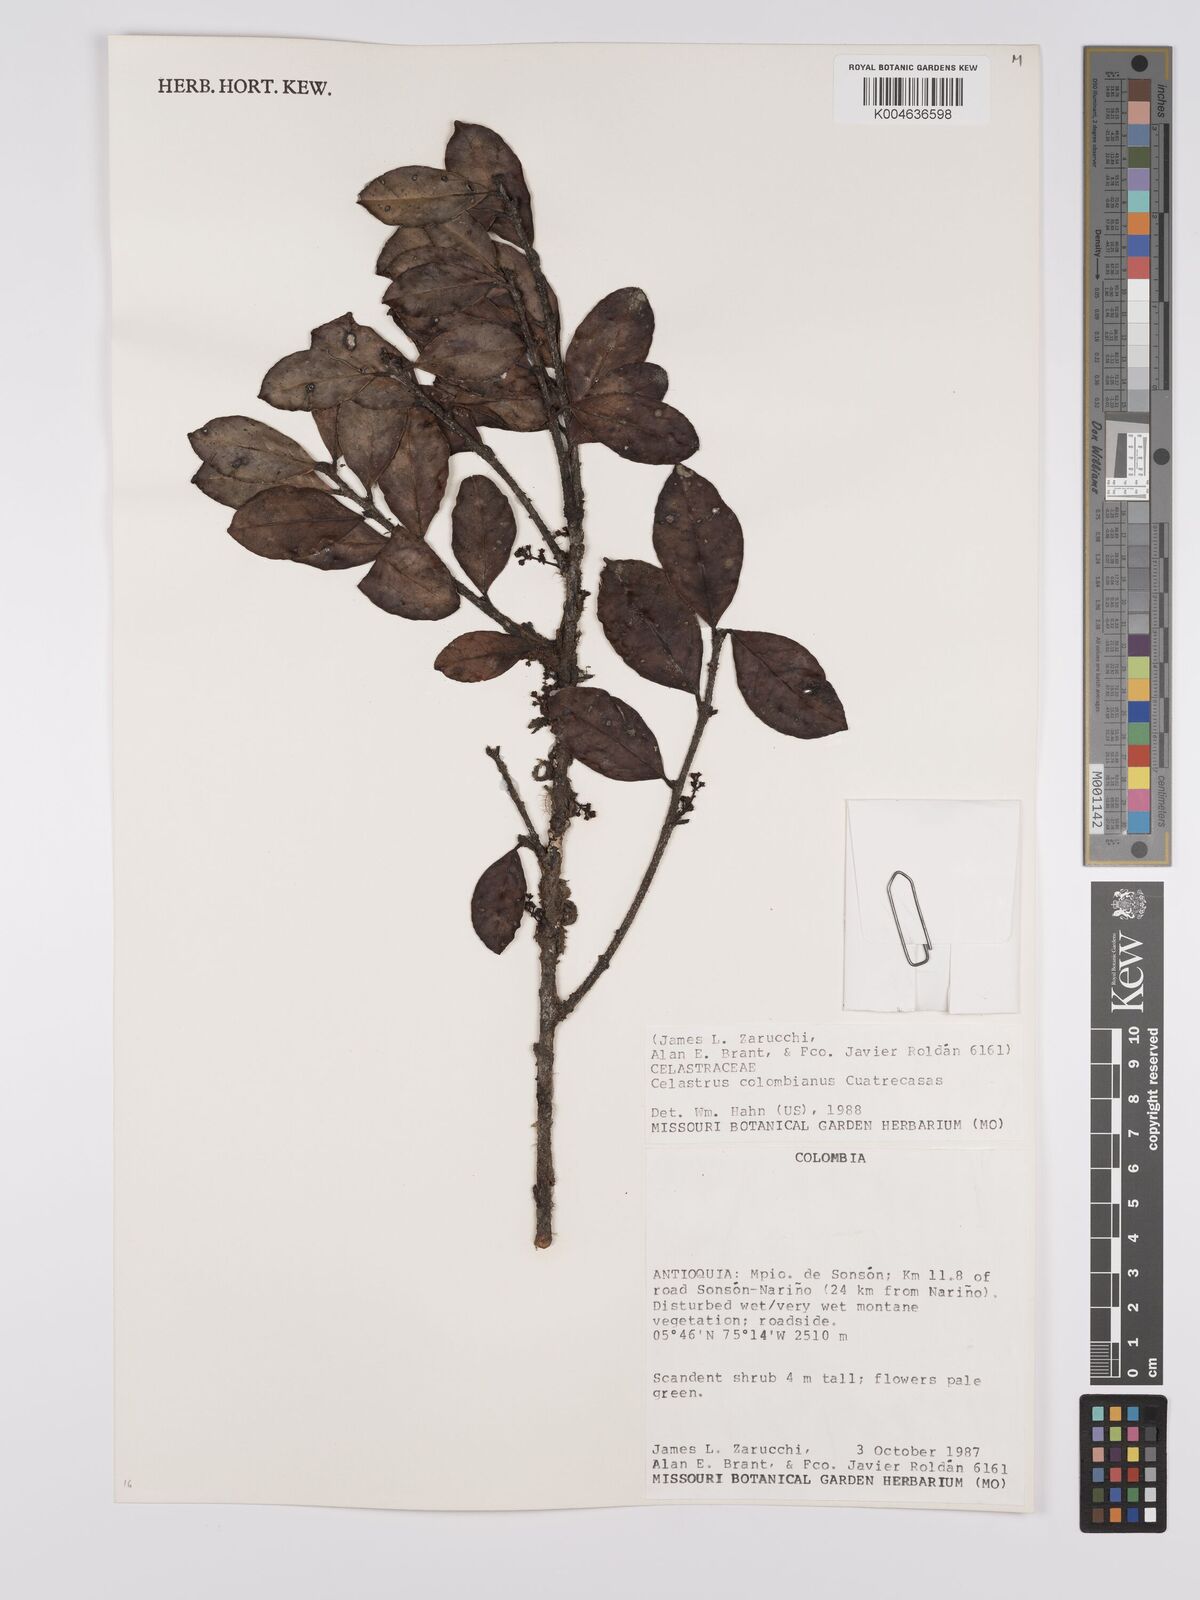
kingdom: Plantae
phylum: Tracheophyta
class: Magnoliopsida
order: Celastrales
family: Celastraceae
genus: Celastrus
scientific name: Celastrus grenadensis
